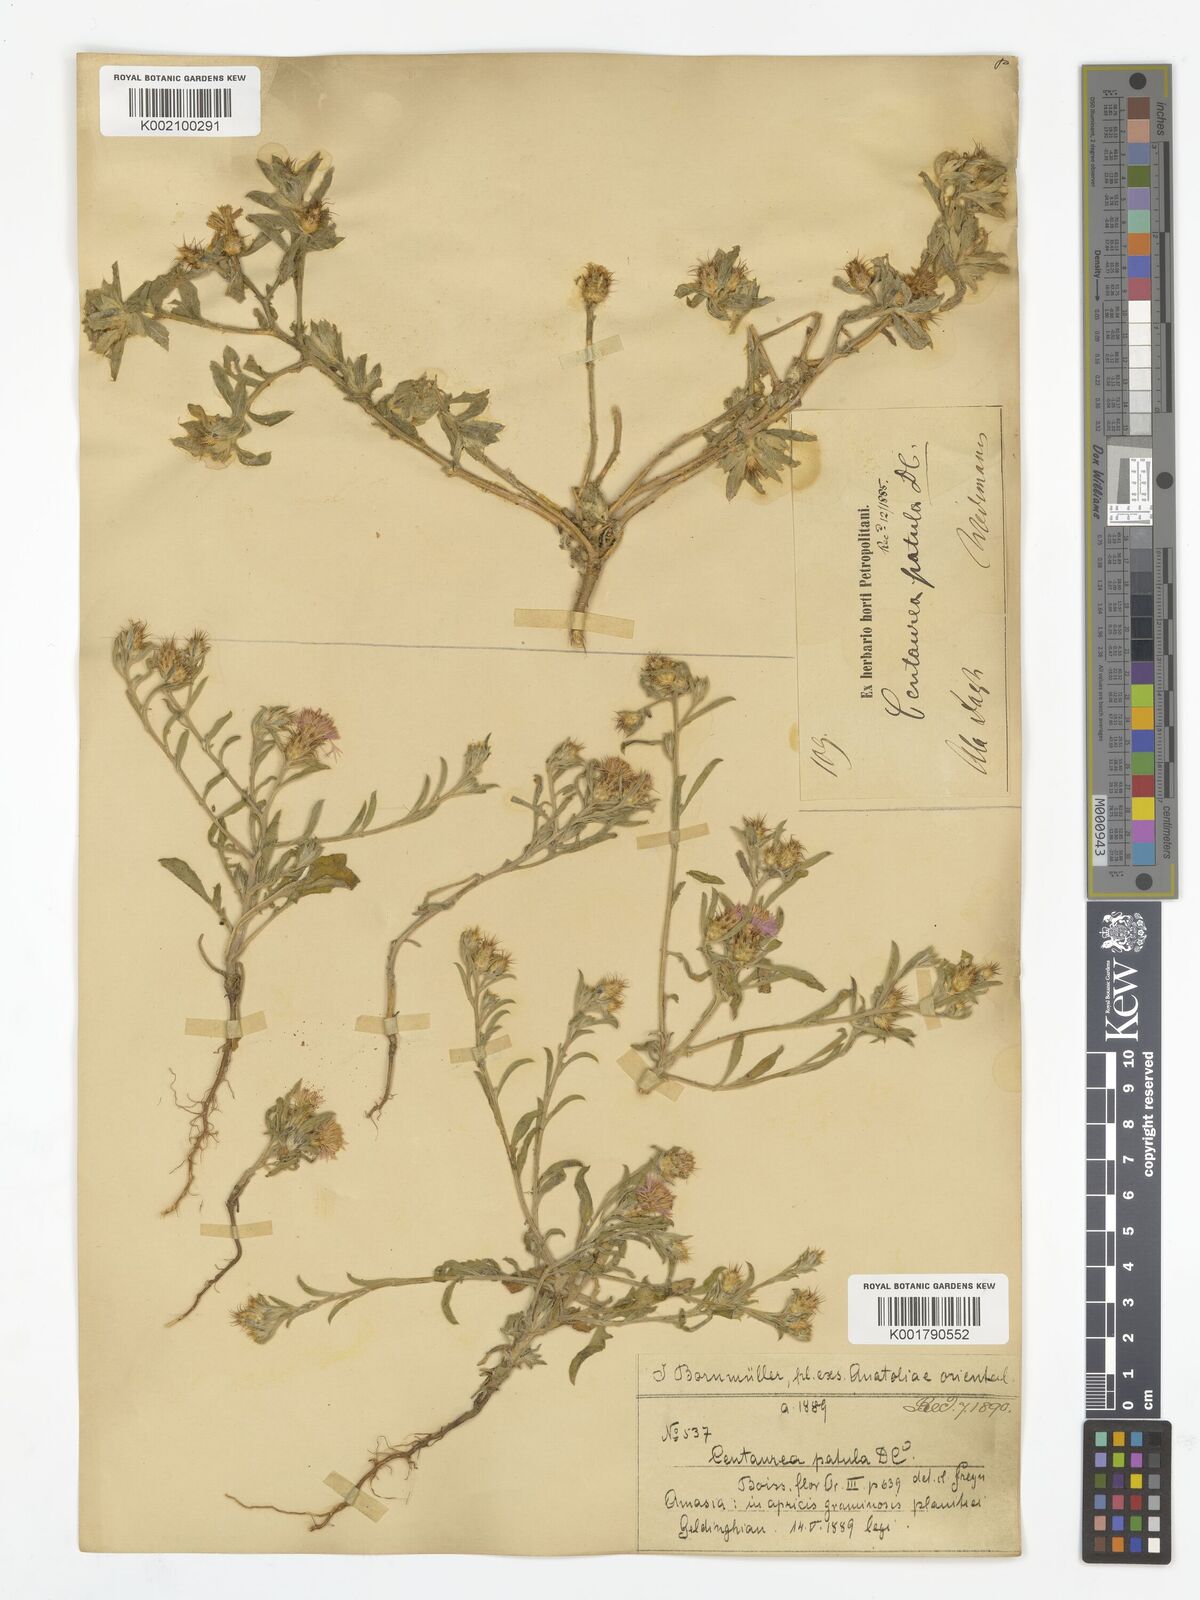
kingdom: Plantae
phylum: Tracheophyta
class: Magnoliopsida
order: Asterales
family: Asteraceae
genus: Centaurea
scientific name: Centaurea patula
